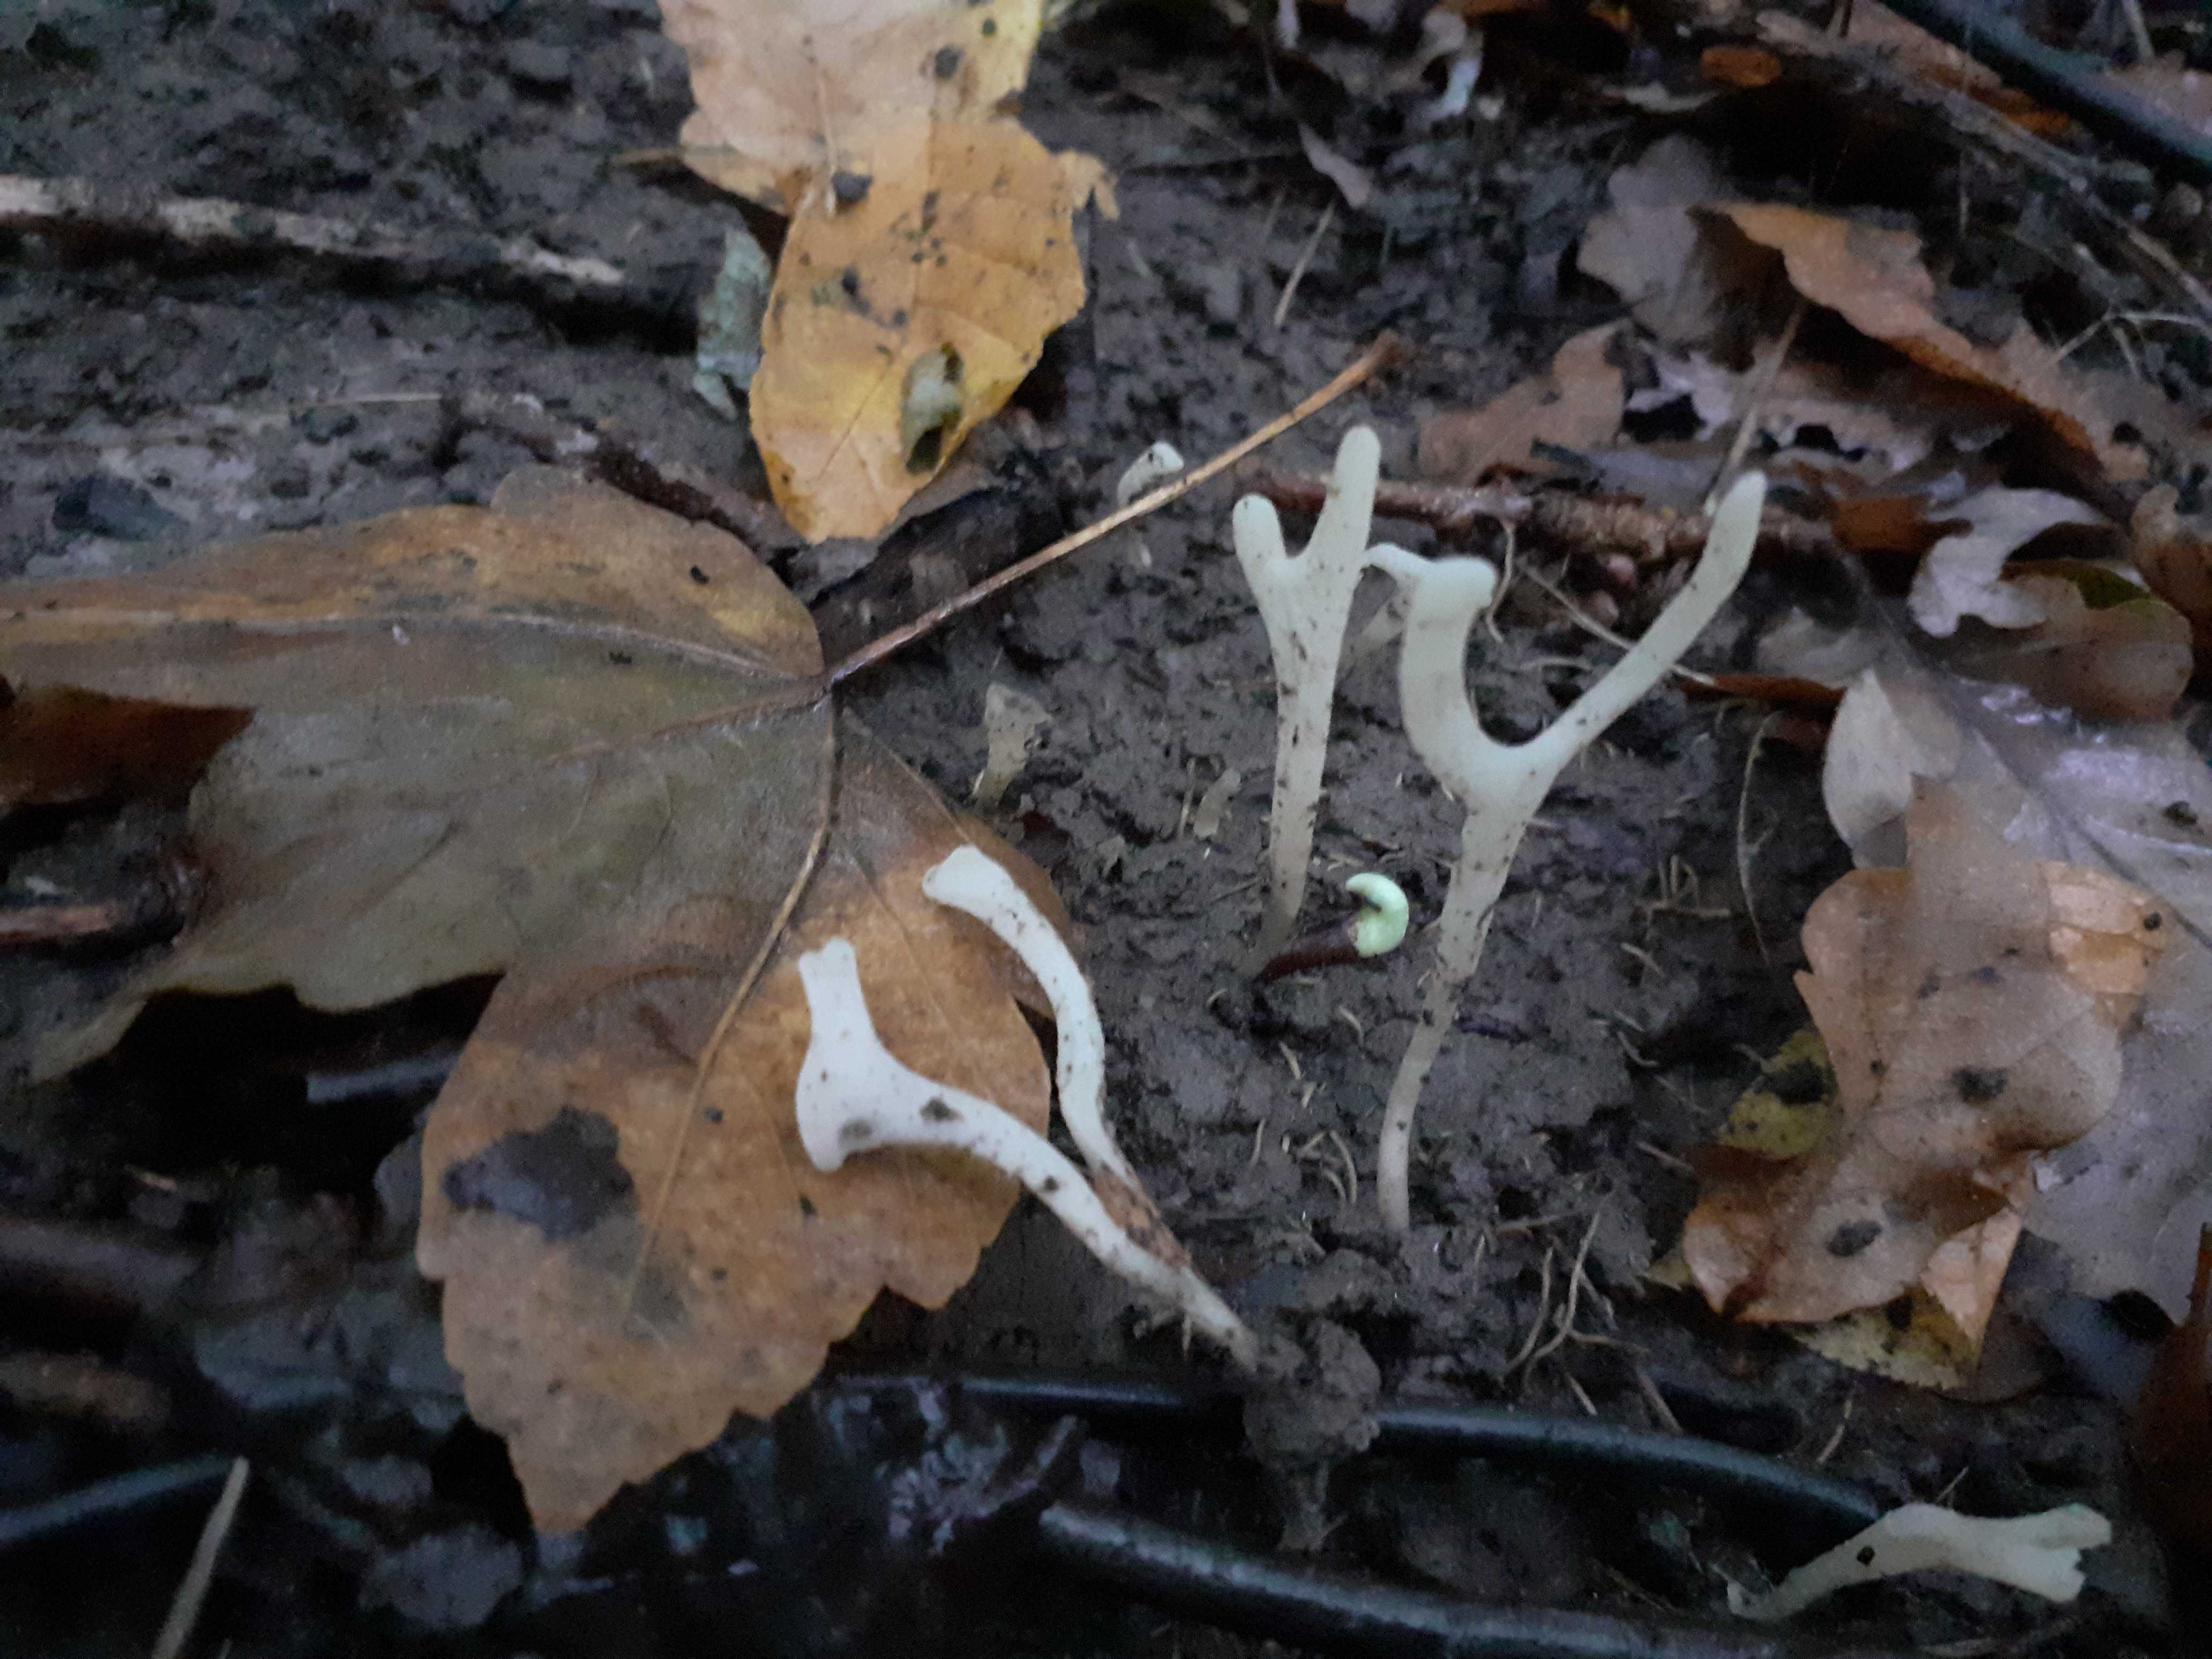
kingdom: Fungi
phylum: Basidiomycota
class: Agaricomycetes
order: Agaricales
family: Clavariaceae
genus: Ramariopsis
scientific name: Ramariopsis
